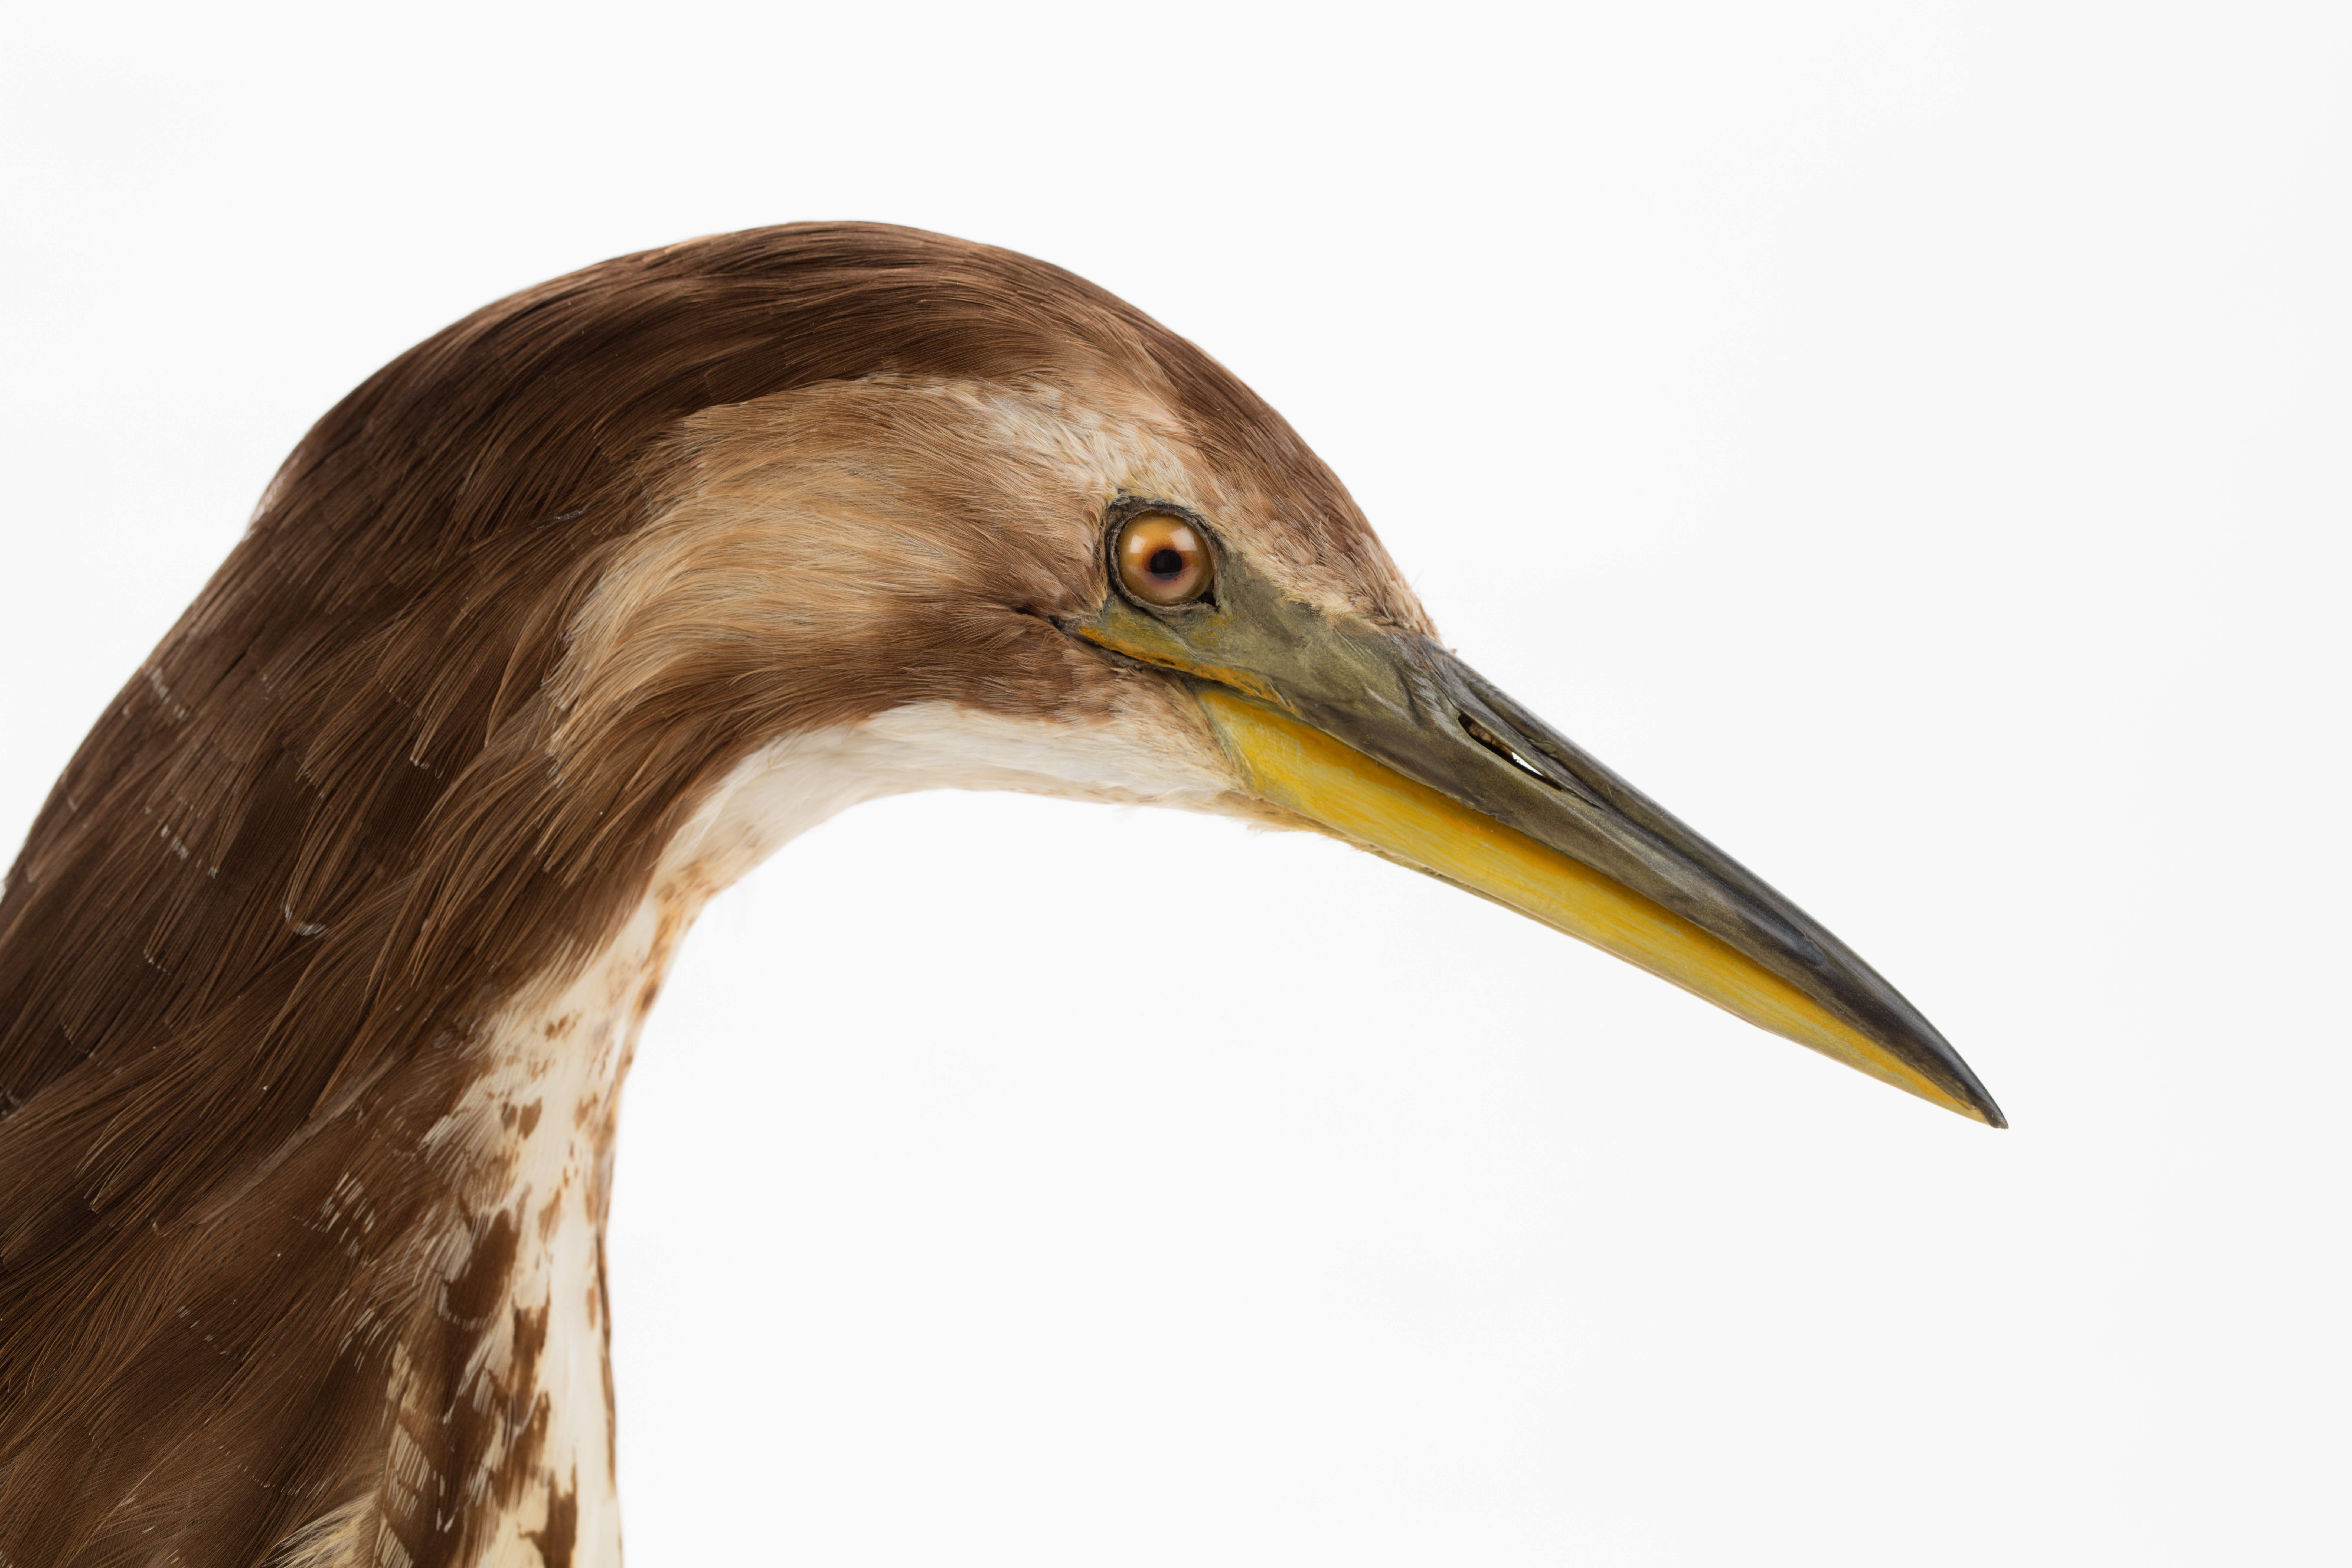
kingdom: Animalia
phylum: Chordata
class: Aves
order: Pelecaniformes
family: Ardeidae
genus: Botaurus
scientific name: Botaurus poiciloptilus
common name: Australasian bittern
